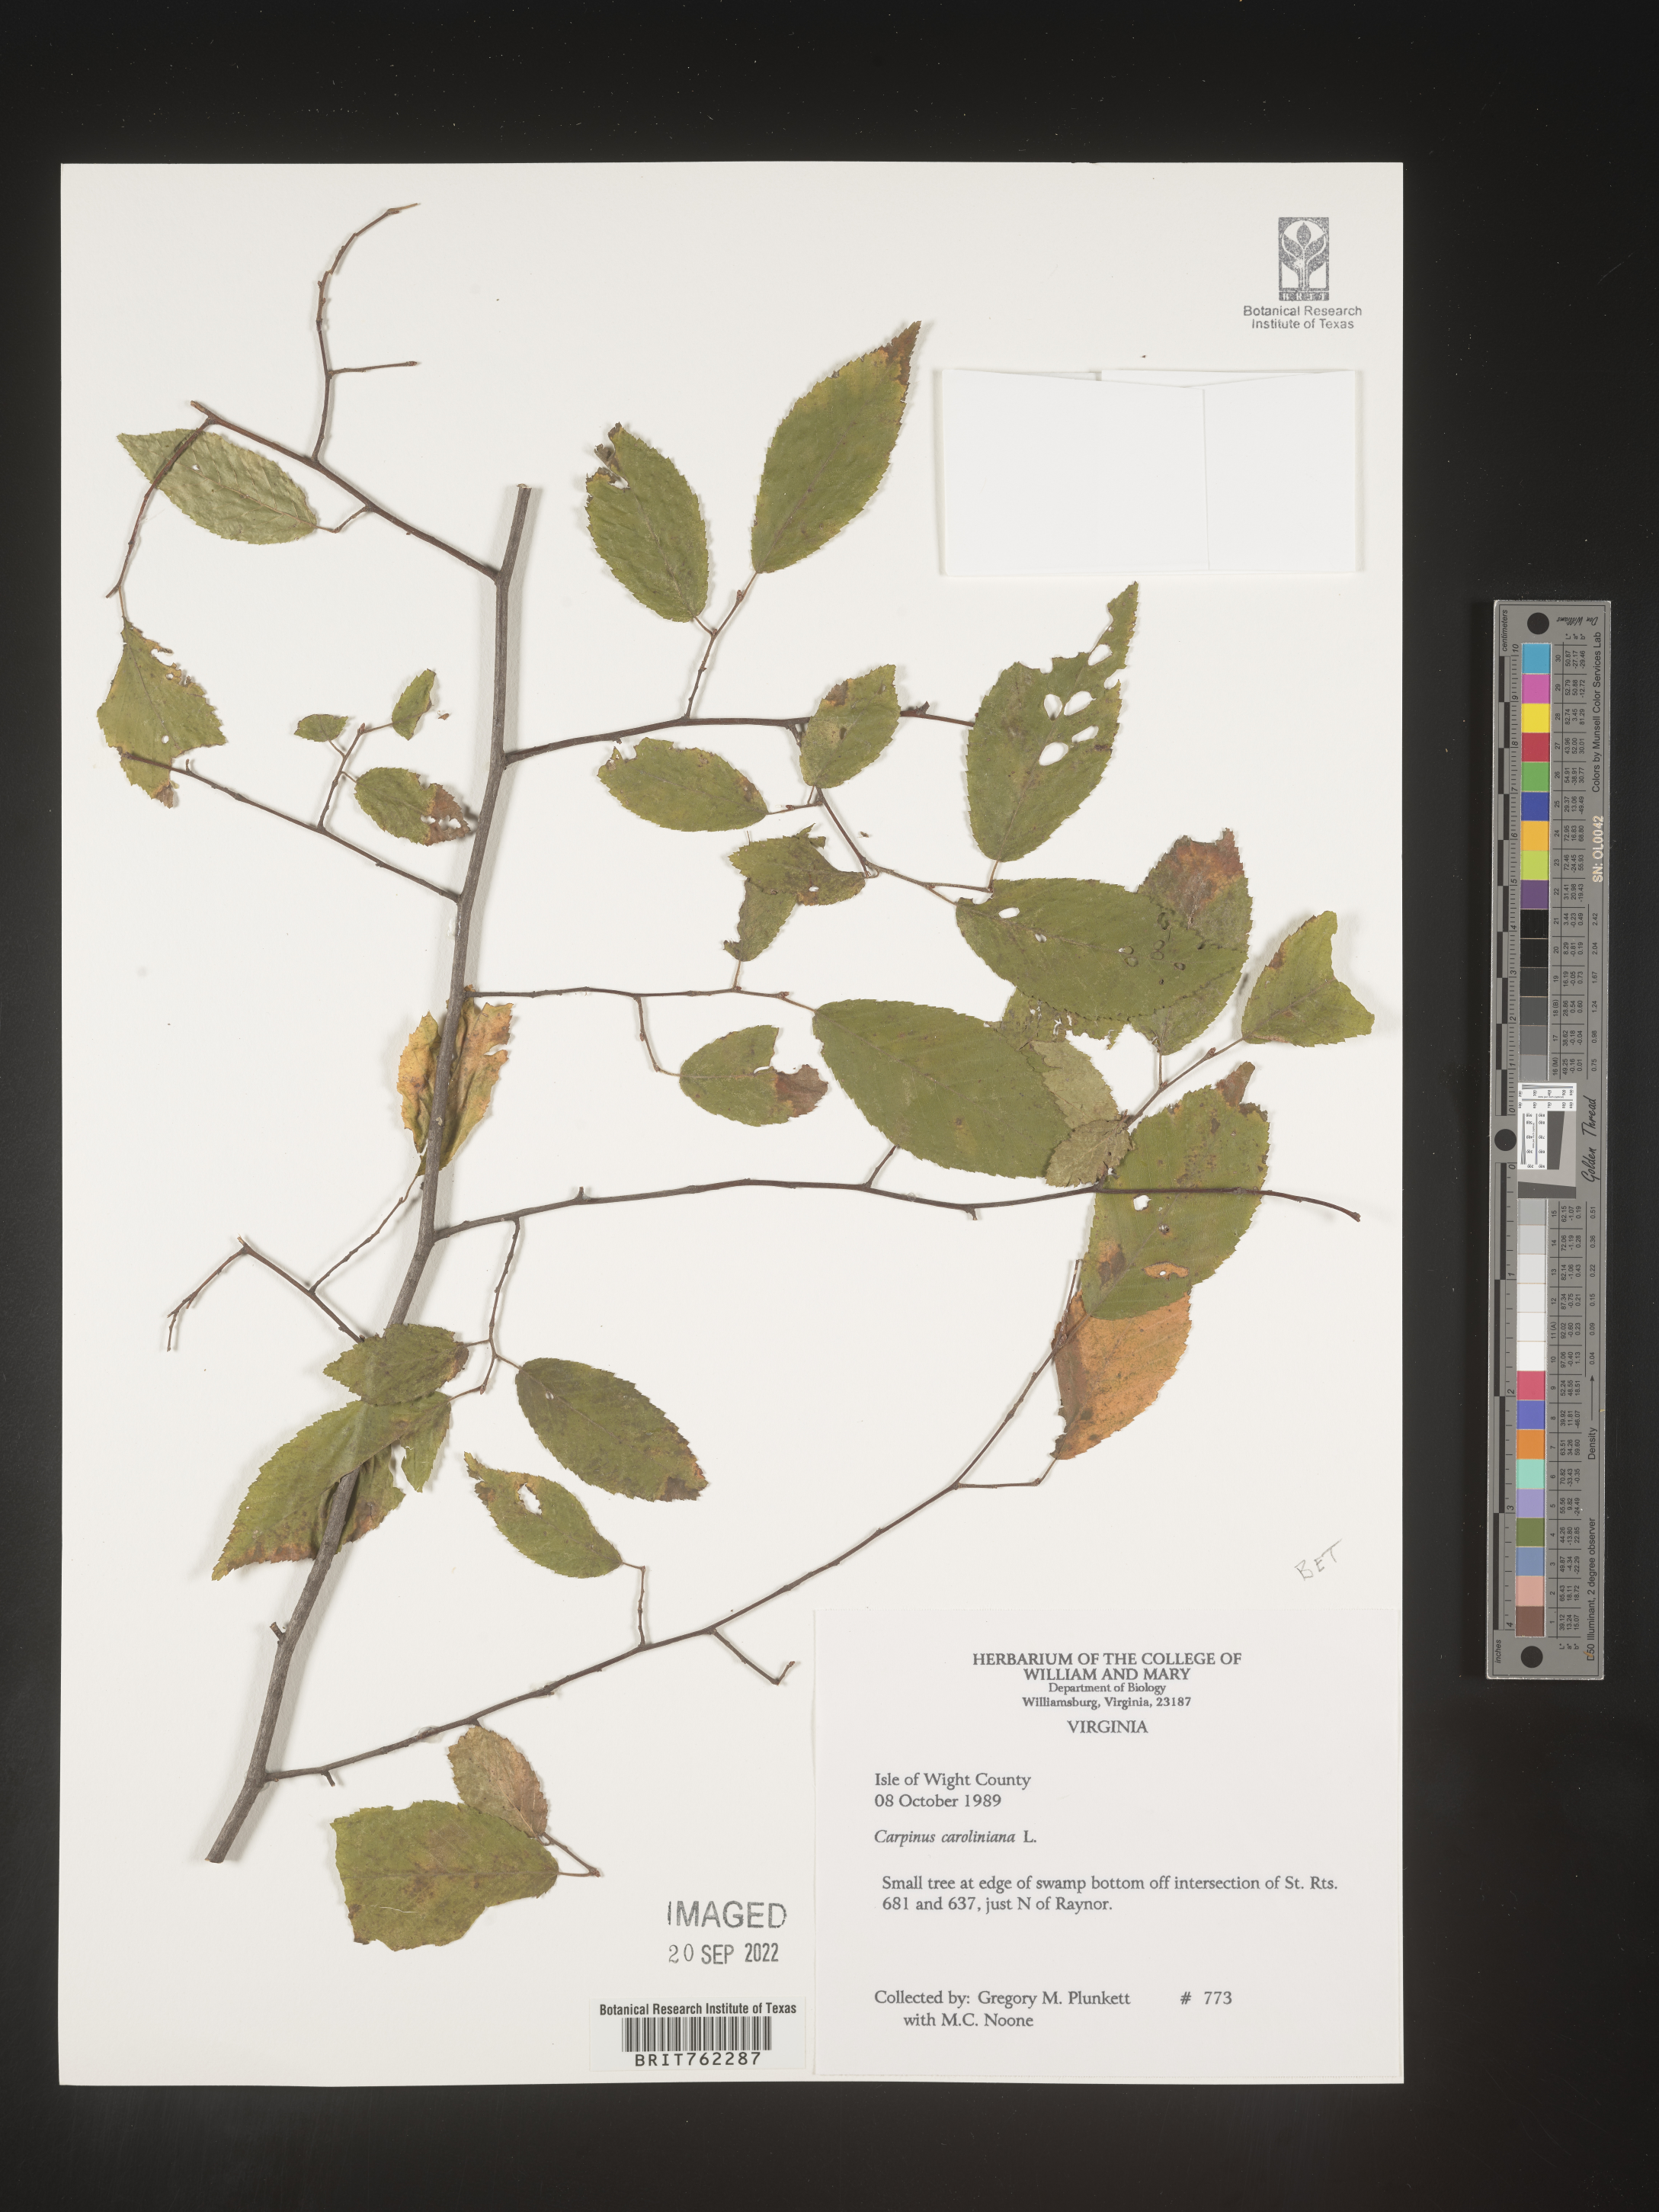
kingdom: Plantae
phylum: Tracheophyta
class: Magnoliopsida
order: Fagales
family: Betulaceae
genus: Carpinus
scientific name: Carpinus caroliniana
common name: American hornbeam
